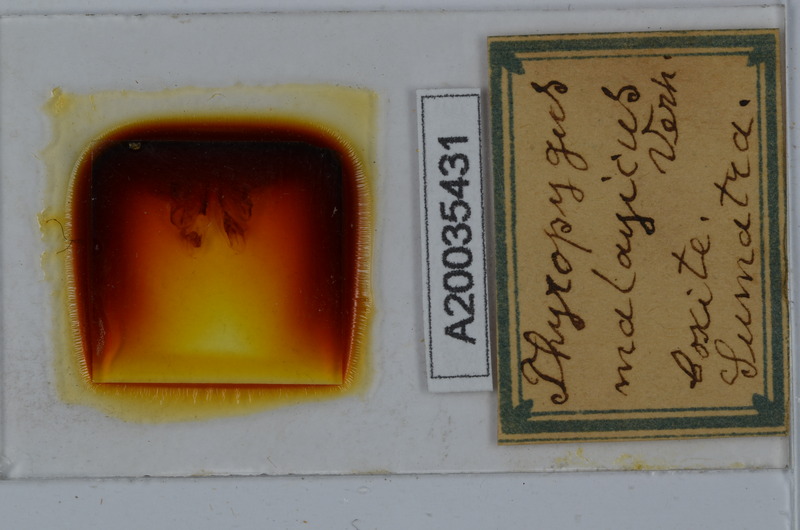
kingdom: Animalia
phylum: Arthropoda
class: Diplopoda
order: Spirostreptida
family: Harpagophoridae
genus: Thyropygus
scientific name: Thyropygus pachyurus
